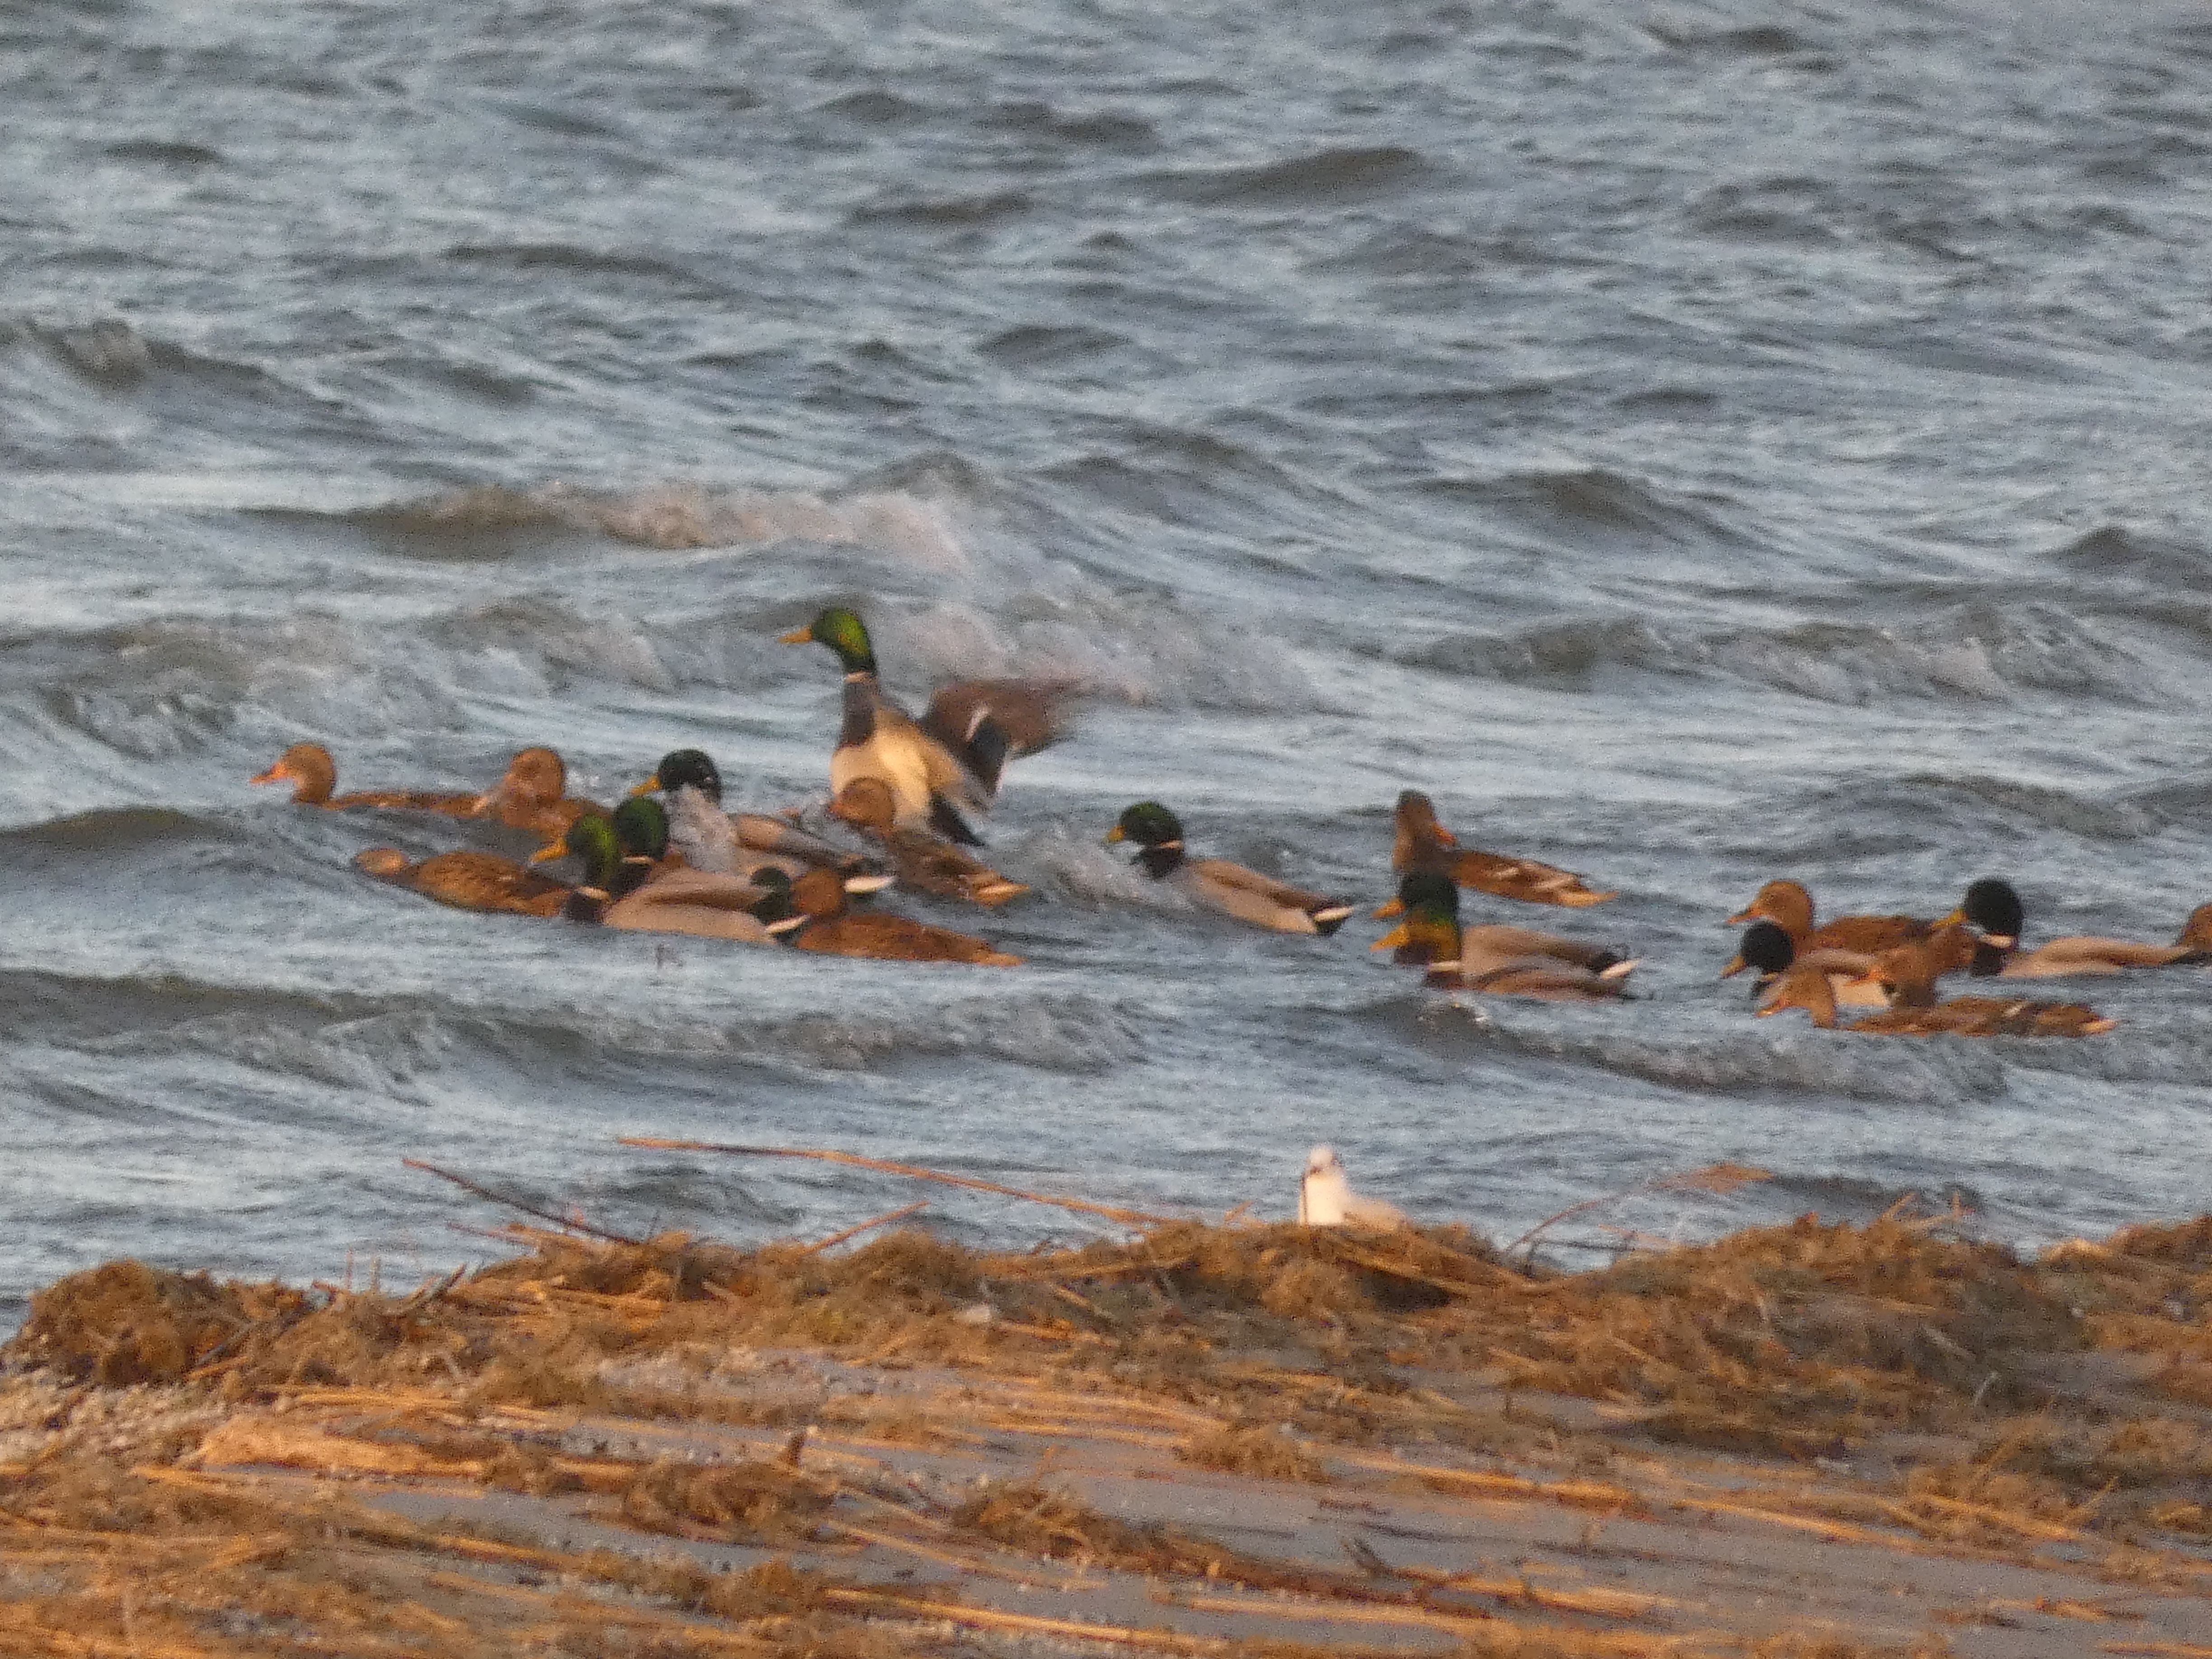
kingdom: Animalia
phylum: Chordata
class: Aves
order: Anseriformes
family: Anatidae
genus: Anas
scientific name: Anas platyrhynchos
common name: Gråand
